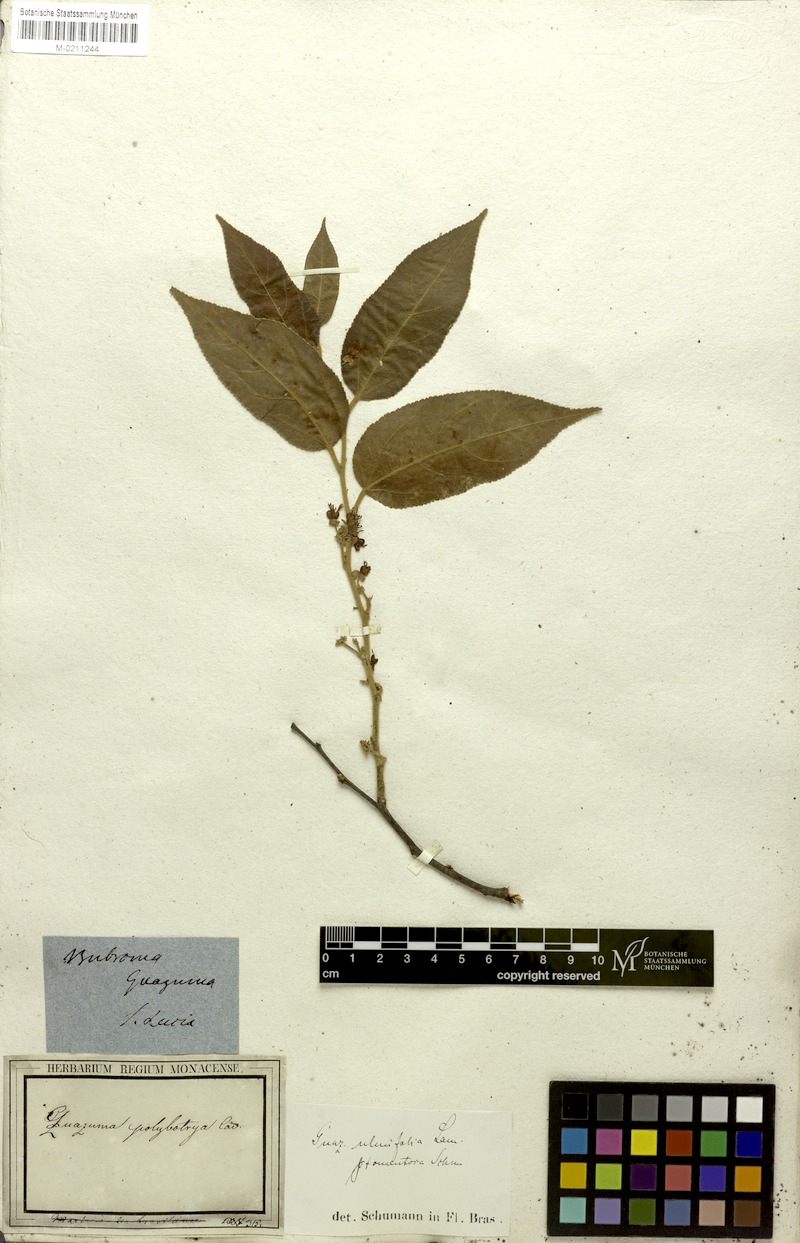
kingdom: Plantae
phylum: Tracheophyta
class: Magnoliopsida
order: Malvales
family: Malvaceae
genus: Guazuma
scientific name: Guazuma ulmifolia
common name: Bastard-cedar
